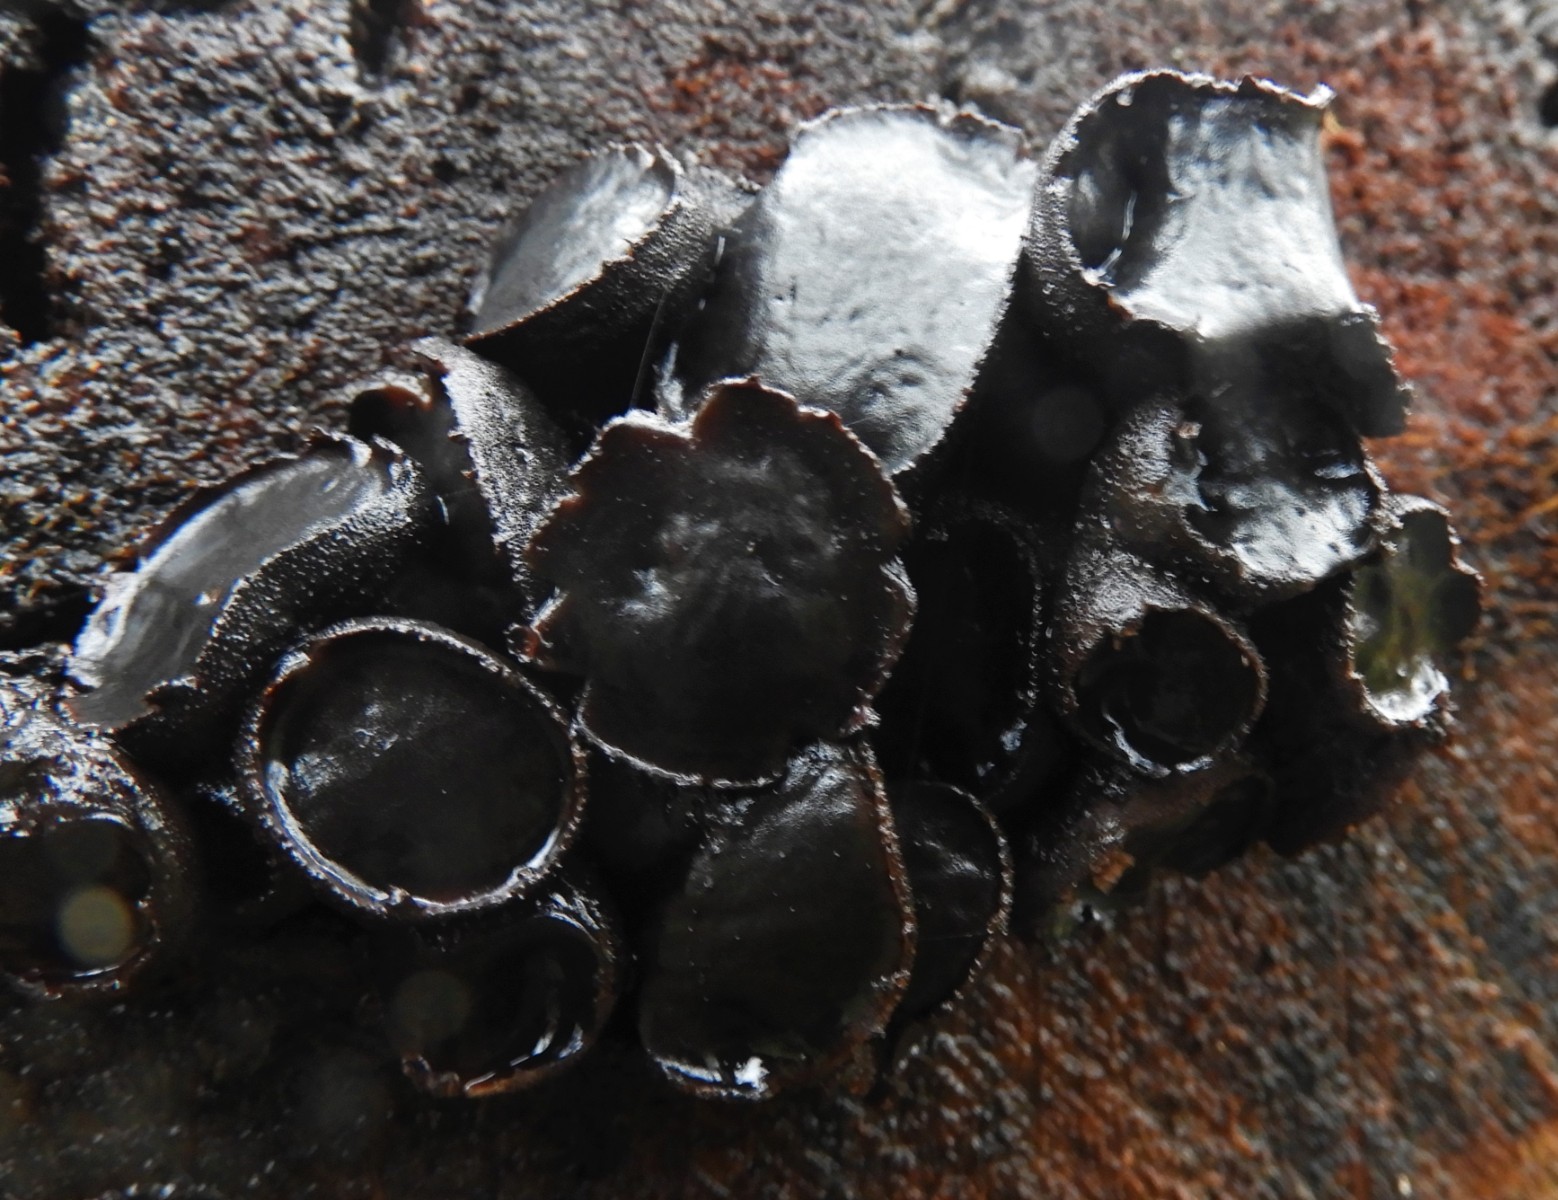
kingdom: Fungi
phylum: Ascomycota
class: Leotiomycetes
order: Phacidiales
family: Phacidiaceae
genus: Bulgaria
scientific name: Bulgaria inquinans
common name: afsmittende topsvamp
